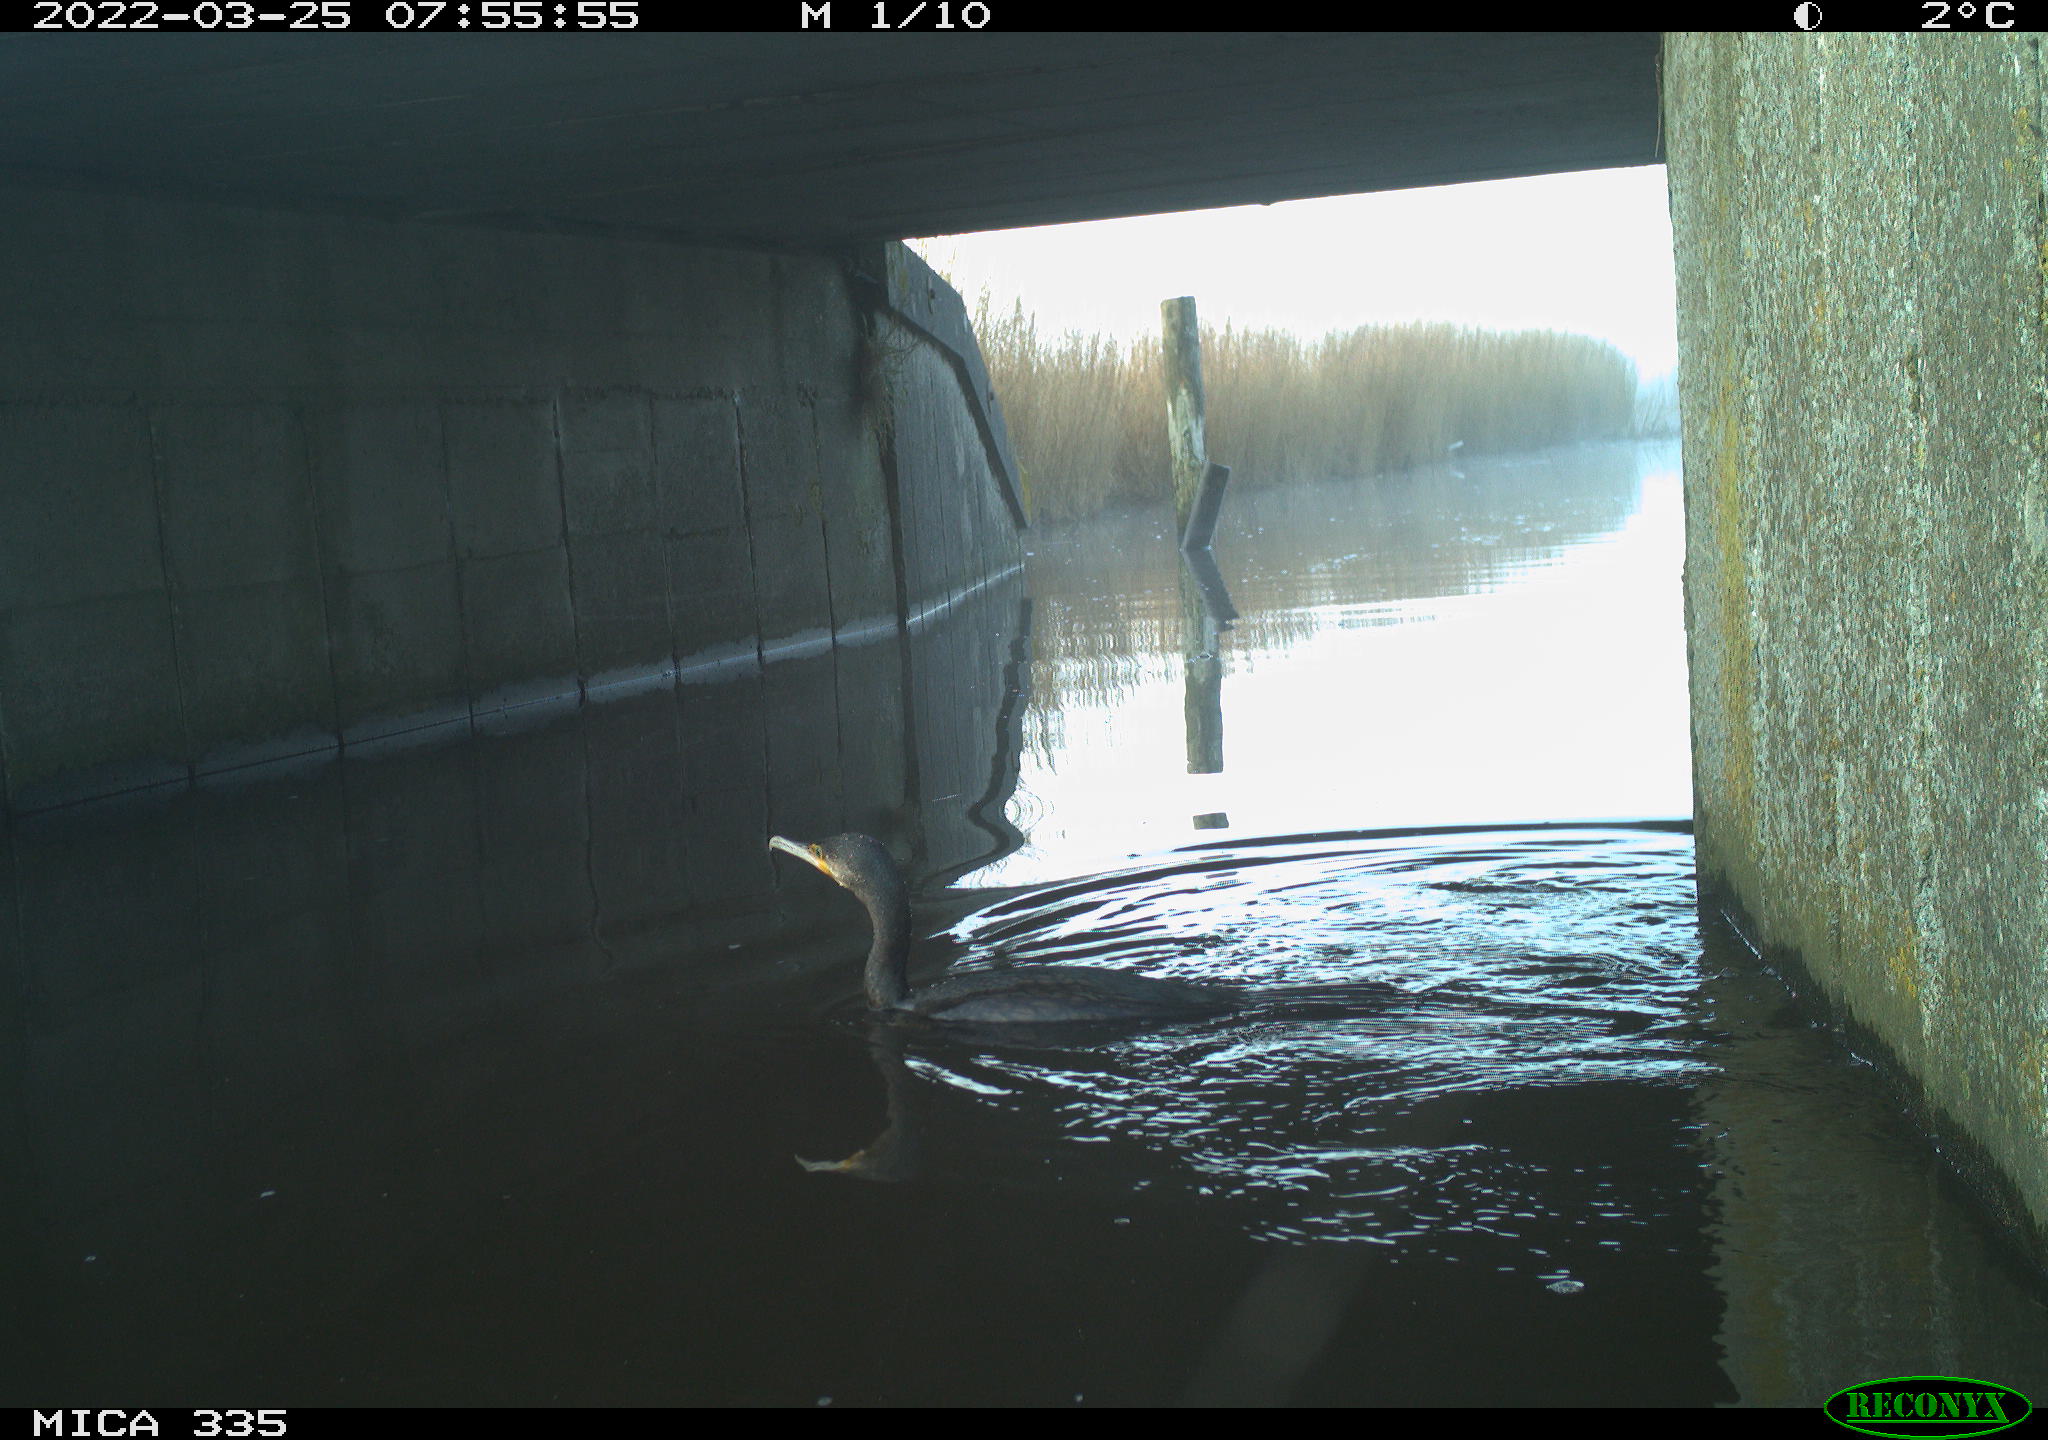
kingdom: Animalia
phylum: Chordata
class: Aves
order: Suliformes
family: Phalacrocoracidae
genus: Phalacrocorax
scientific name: Phalacrocorax carbo
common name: Great cormorant
